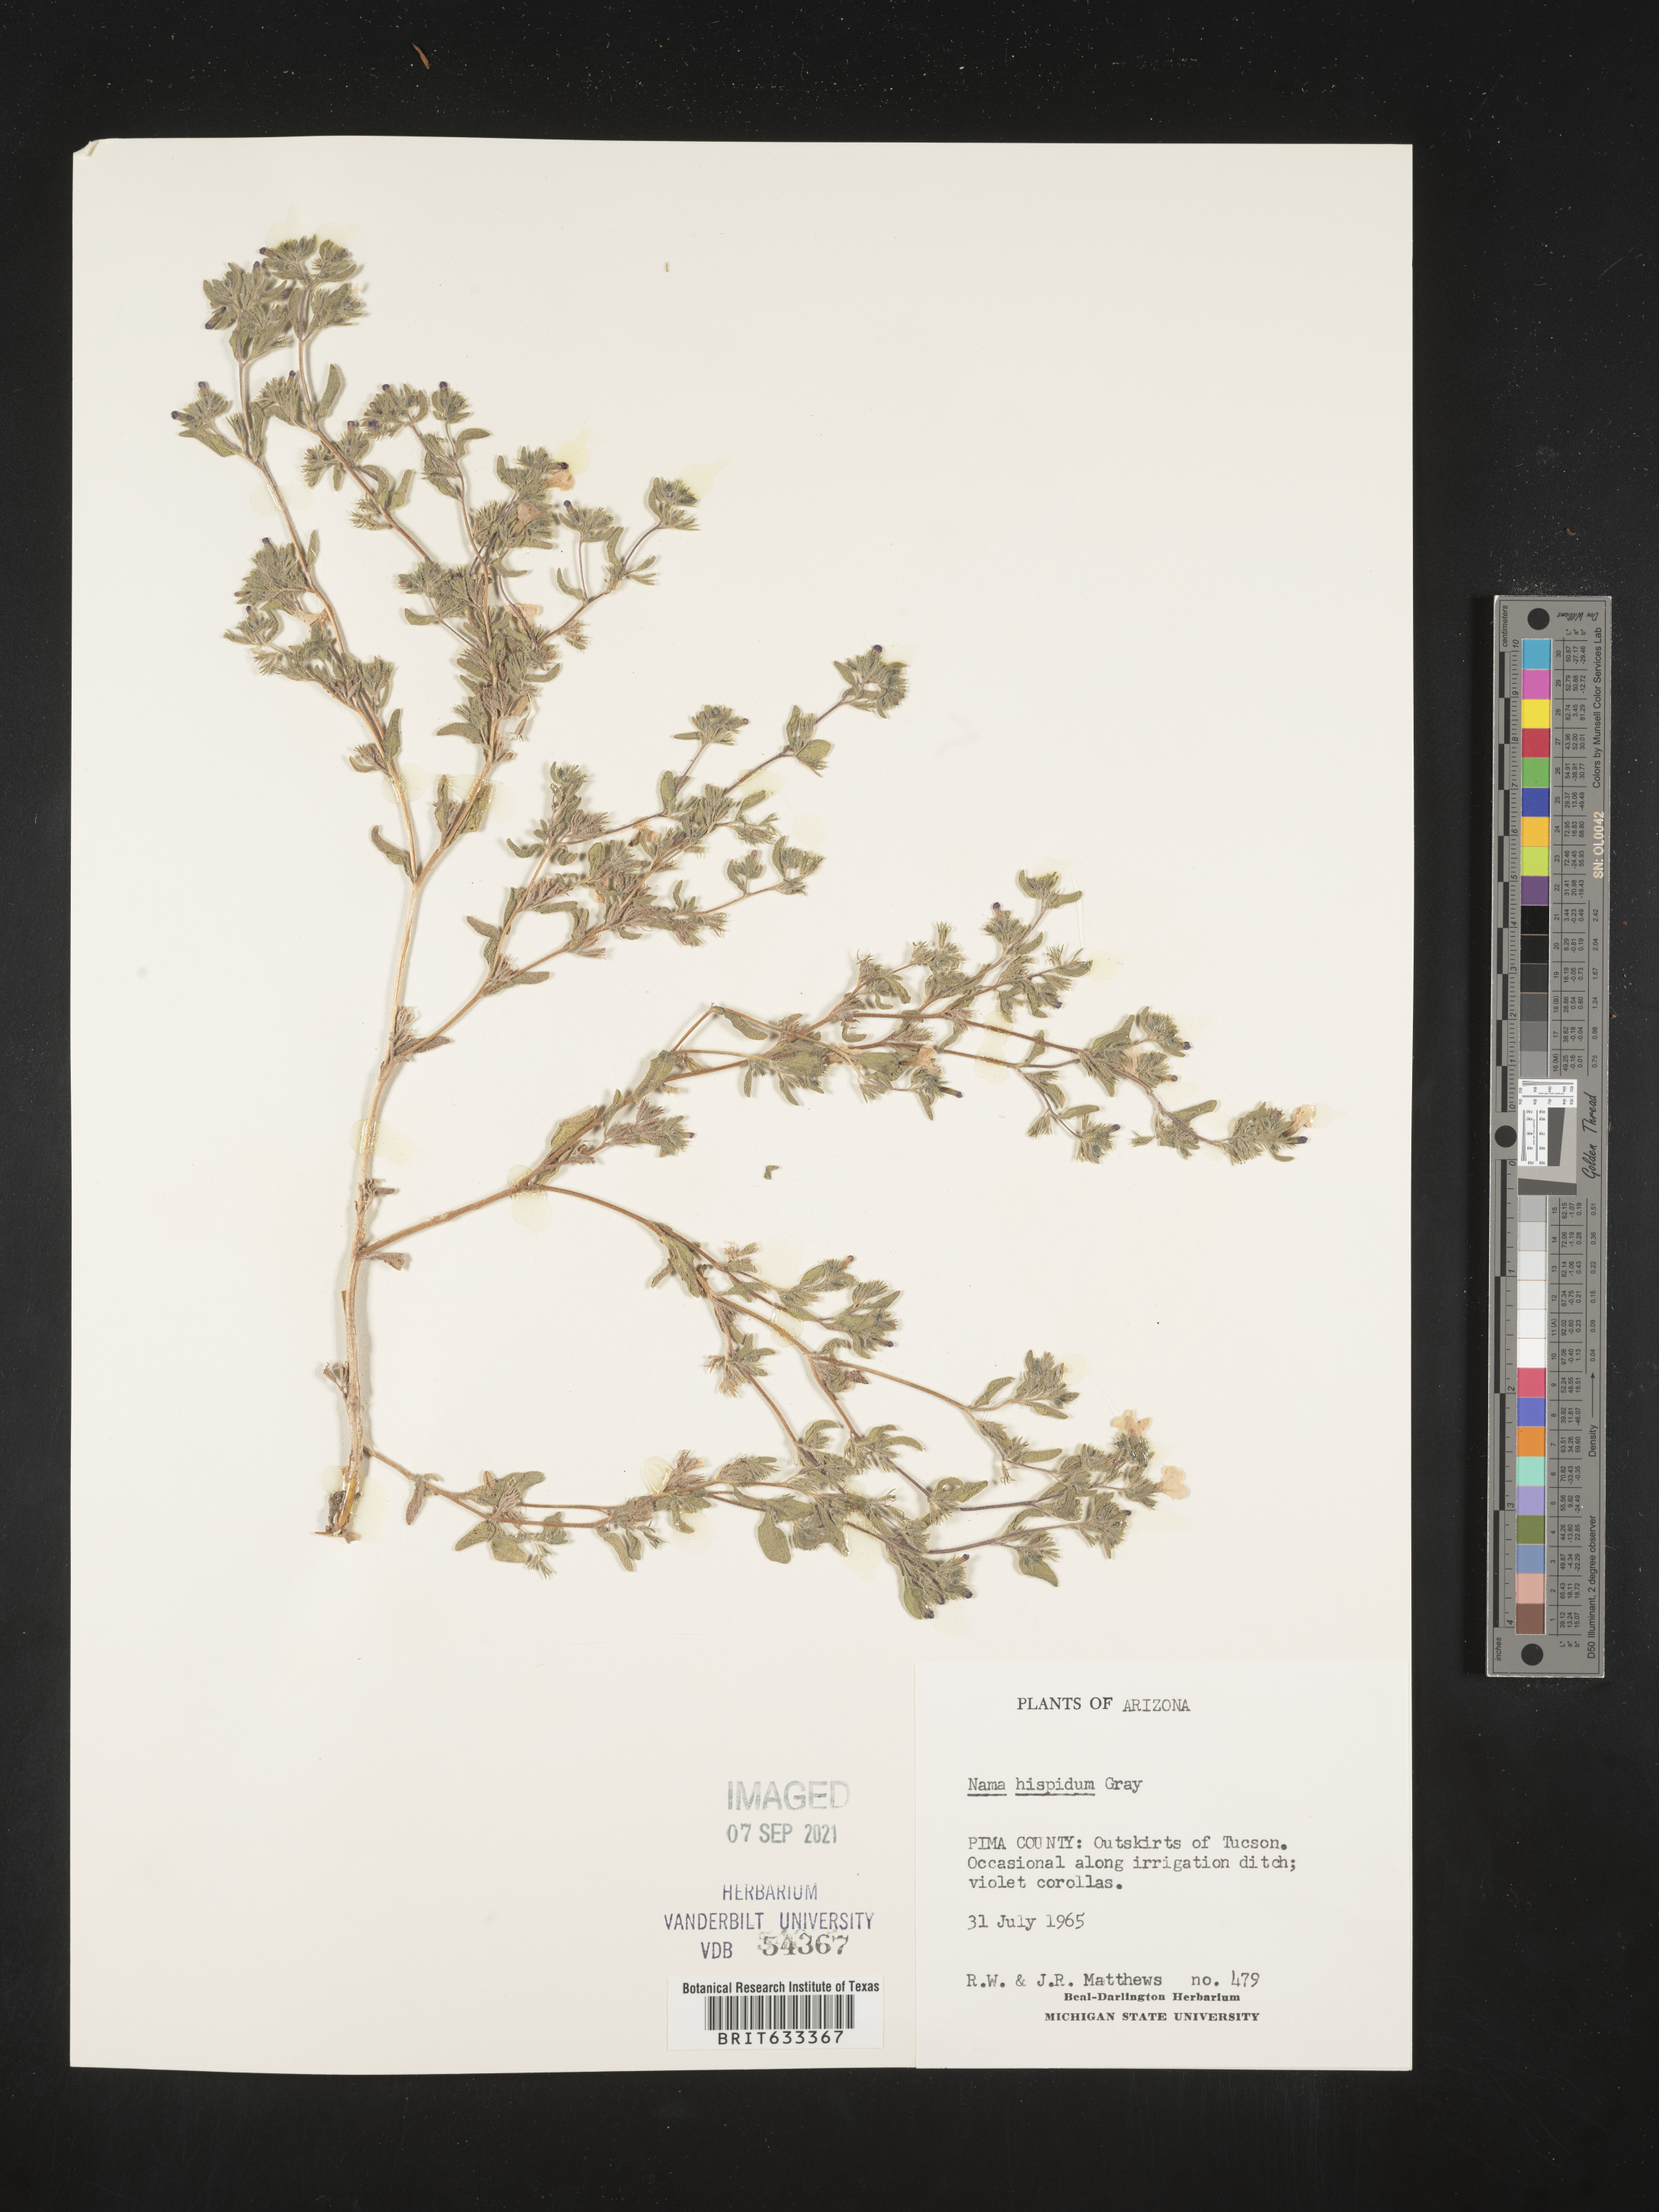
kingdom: Plantae
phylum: Tracheophyta
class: Magnoliopsida
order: Boraginales
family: Namaceae
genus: Nama
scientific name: Nama hispida
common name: Bristly nama
